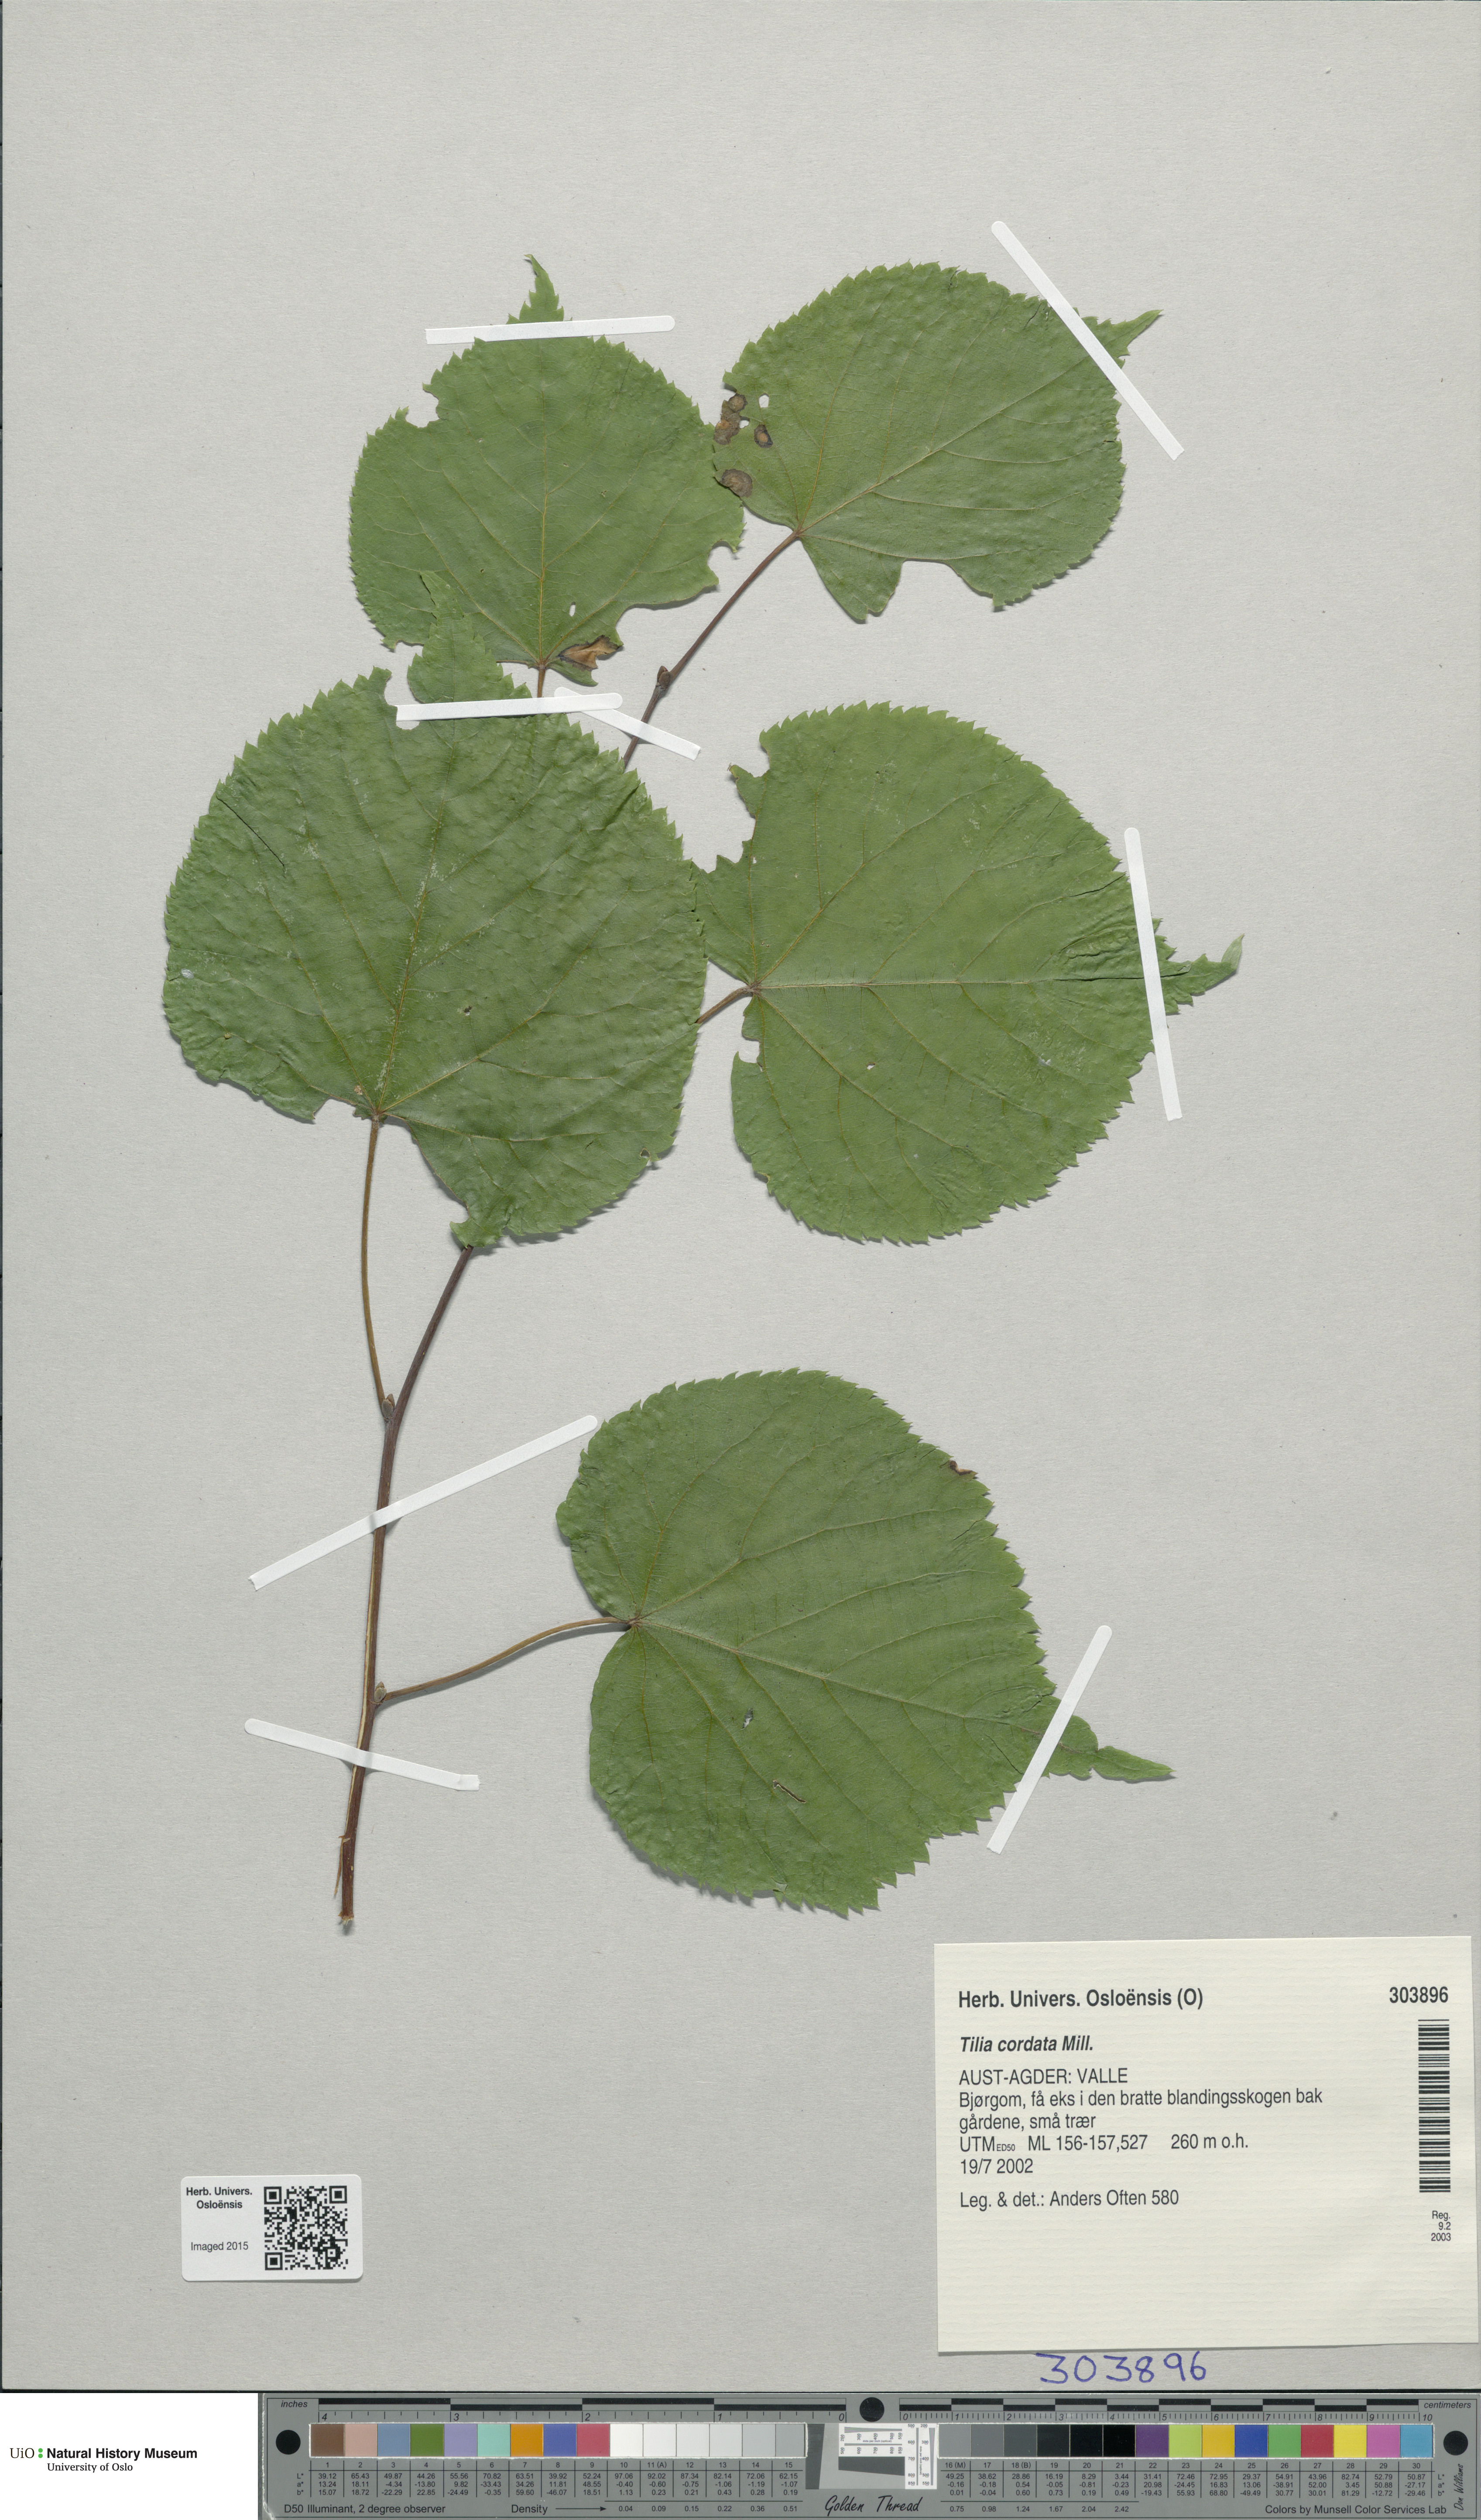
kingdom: Plantae
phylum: Tracheophyta
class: Magnoliopsida
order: Malvales
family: Malvaceae
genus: Tilia
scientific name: Tilia cordata
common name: Small-leaved lime
